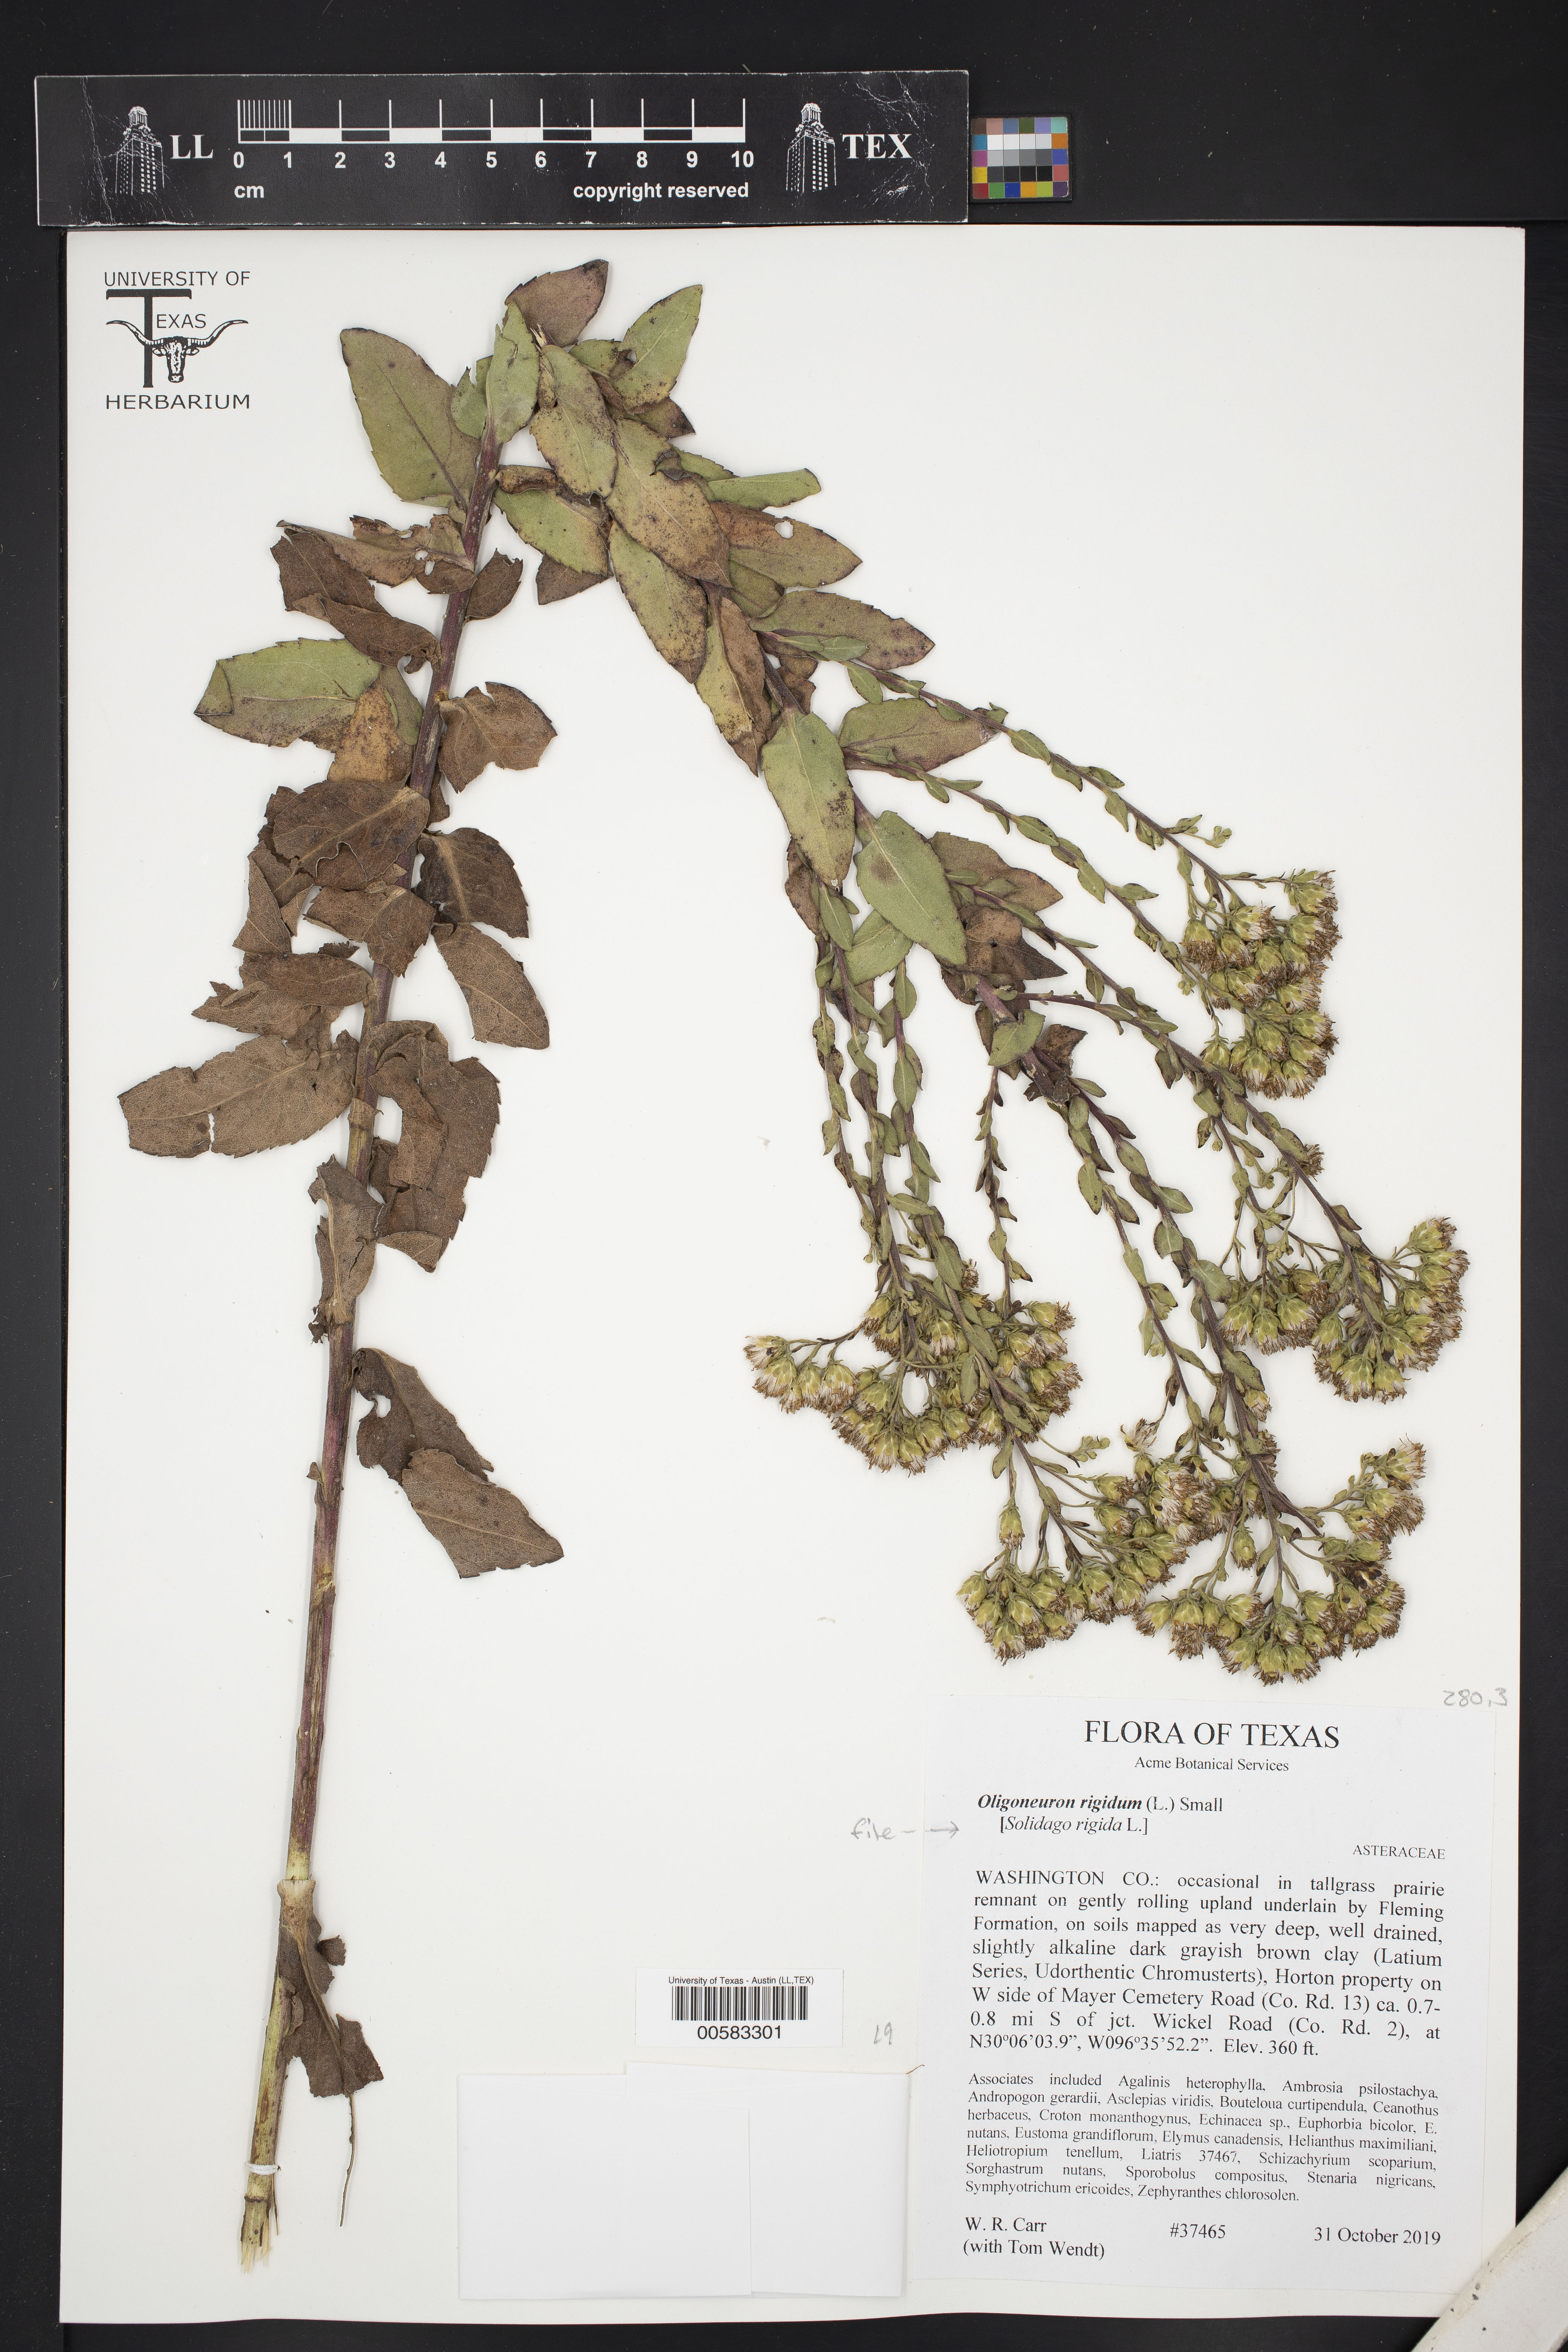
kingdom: Plantae
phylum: Tracheophyta
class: Magnoliopsida
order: Asterales
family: Asteraceae
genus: Solidago
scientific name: Solidago rigida
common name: Rigid goldenrod
